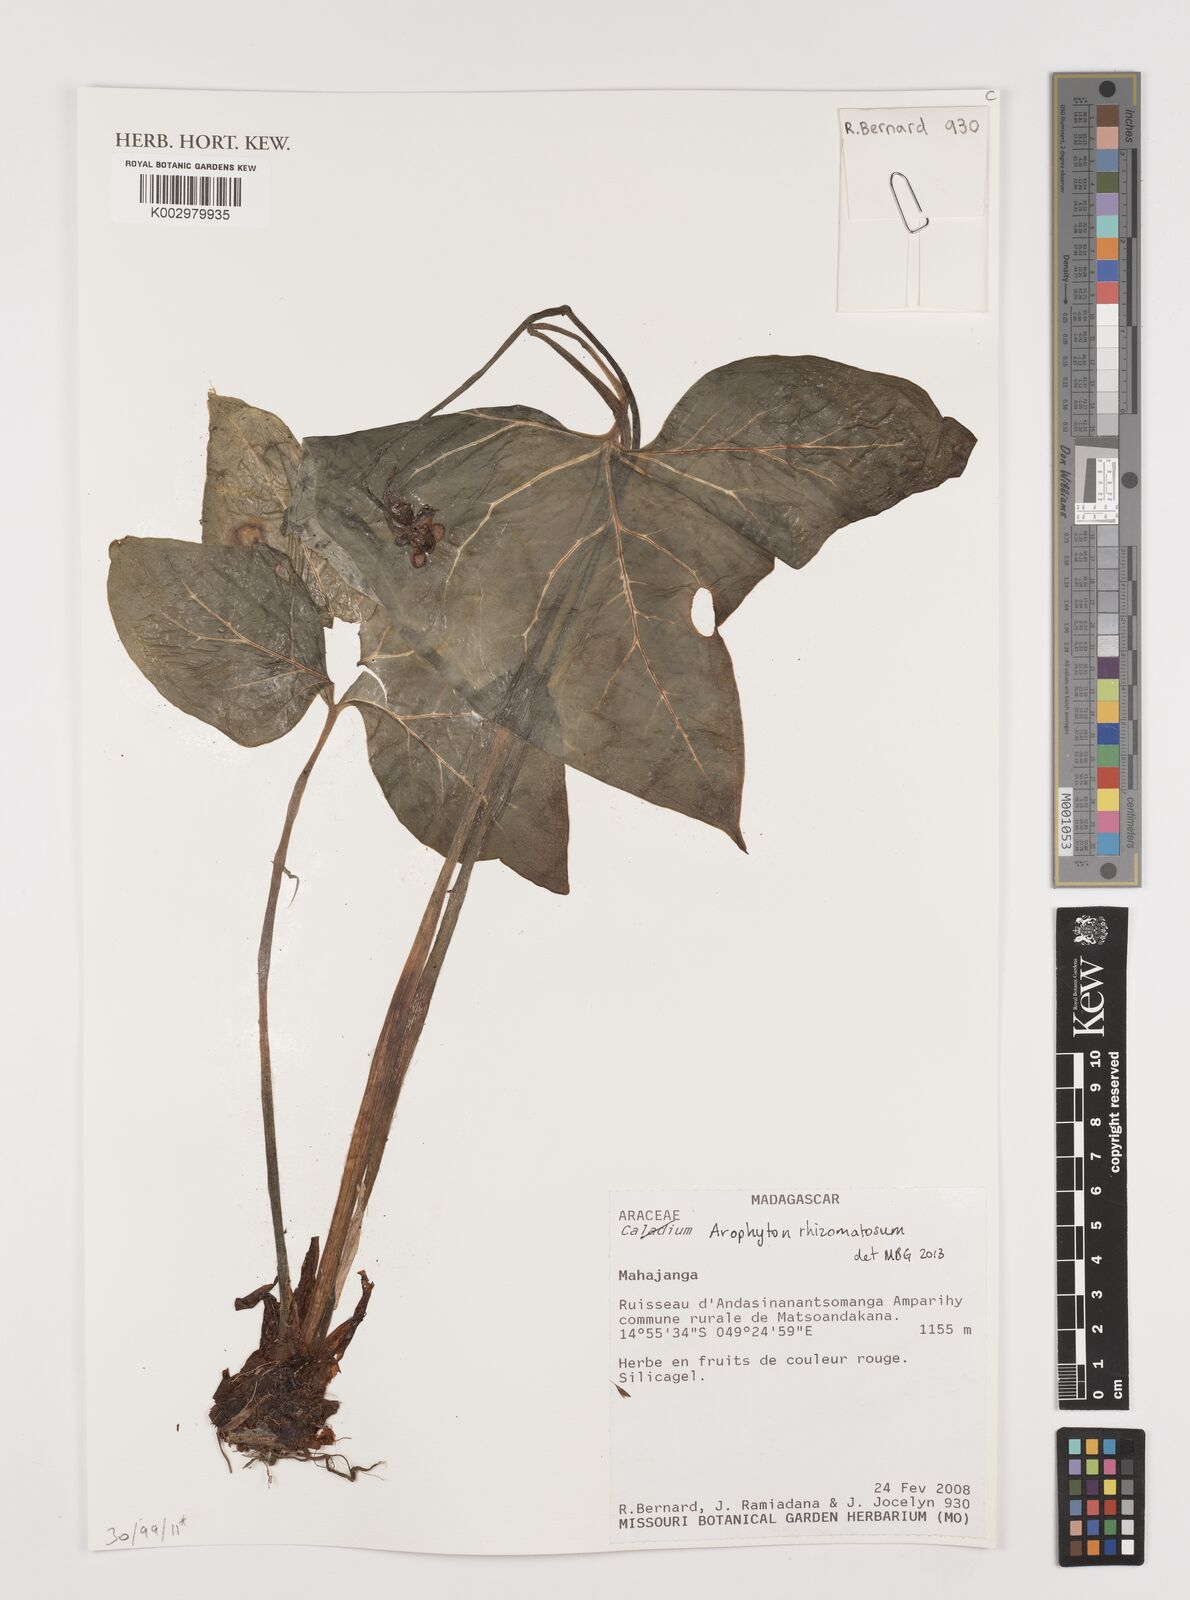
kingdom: Plantae
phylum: Tracheophyta
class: Liliopsida
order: Alismatales
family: Araceae
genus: Arophyton
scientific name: Arophyton rhizomatosum
